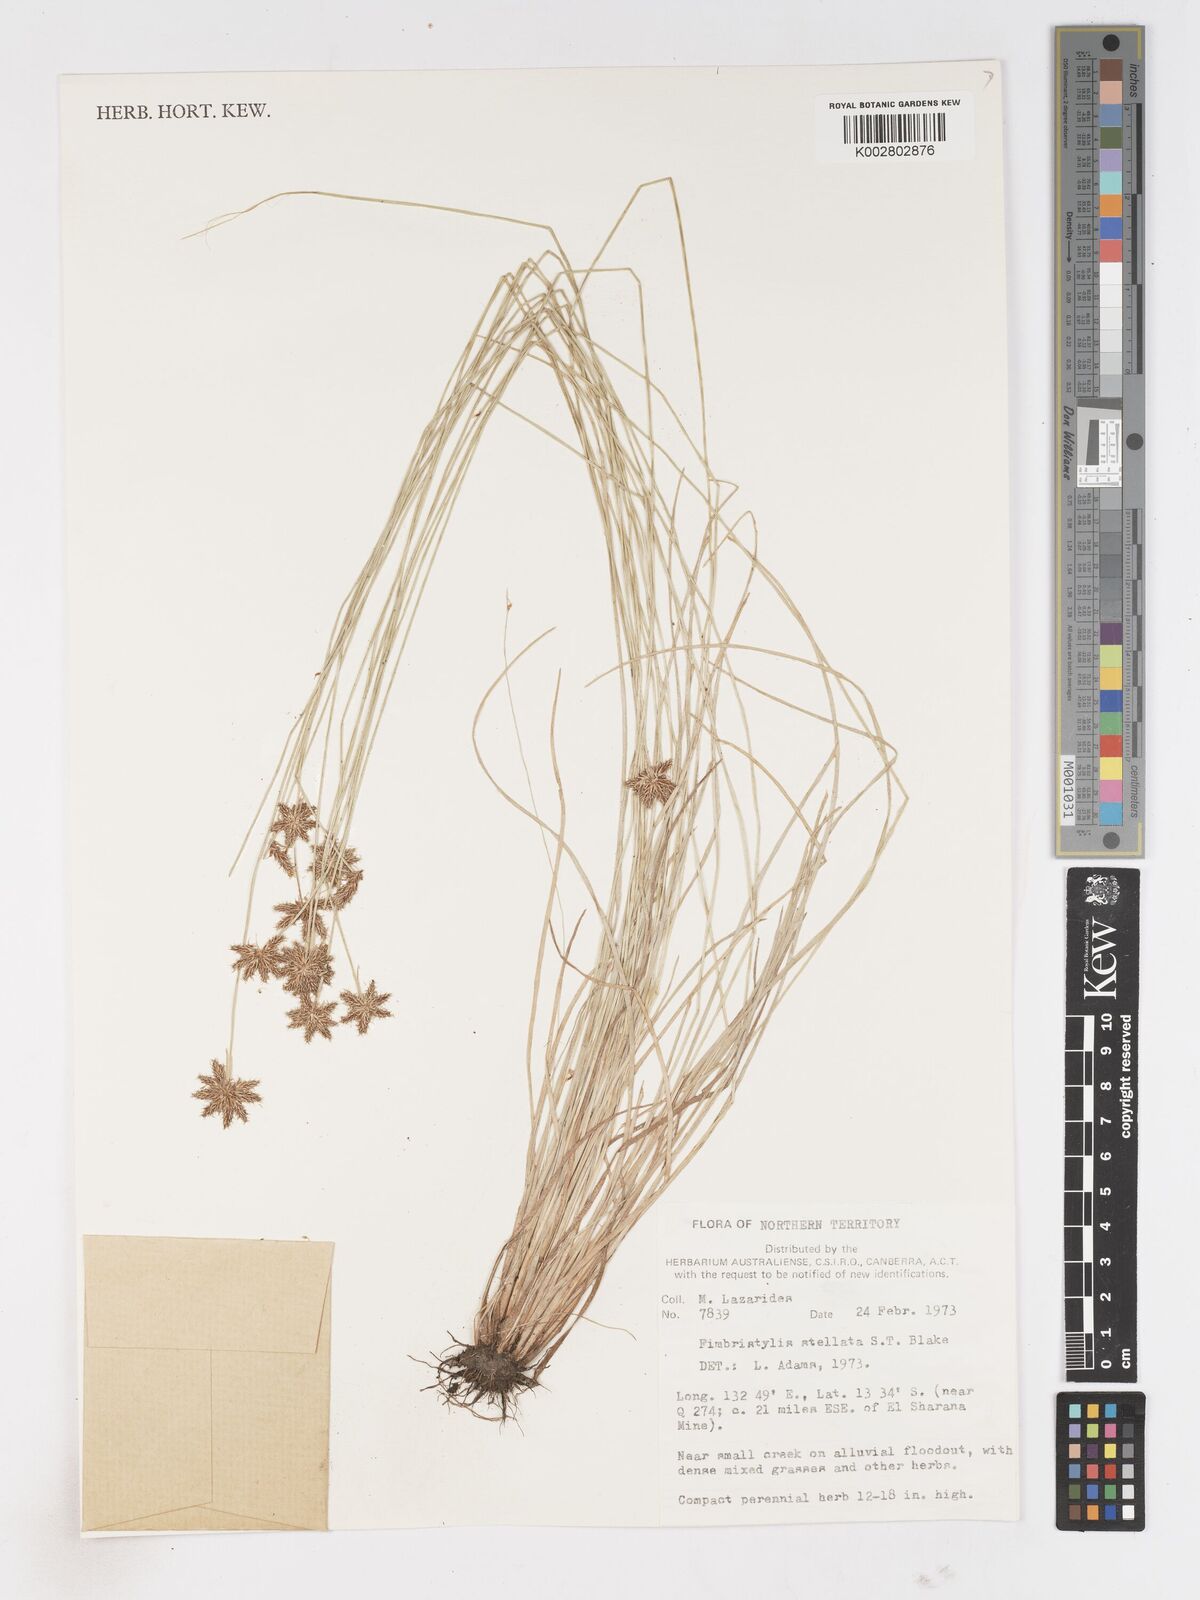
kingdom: Plantae
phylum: Tracheophyta
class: Liliopsida
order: Poales
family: Cyperaceae
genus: Fimbristylis
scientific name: Fimbristylis schultzii
